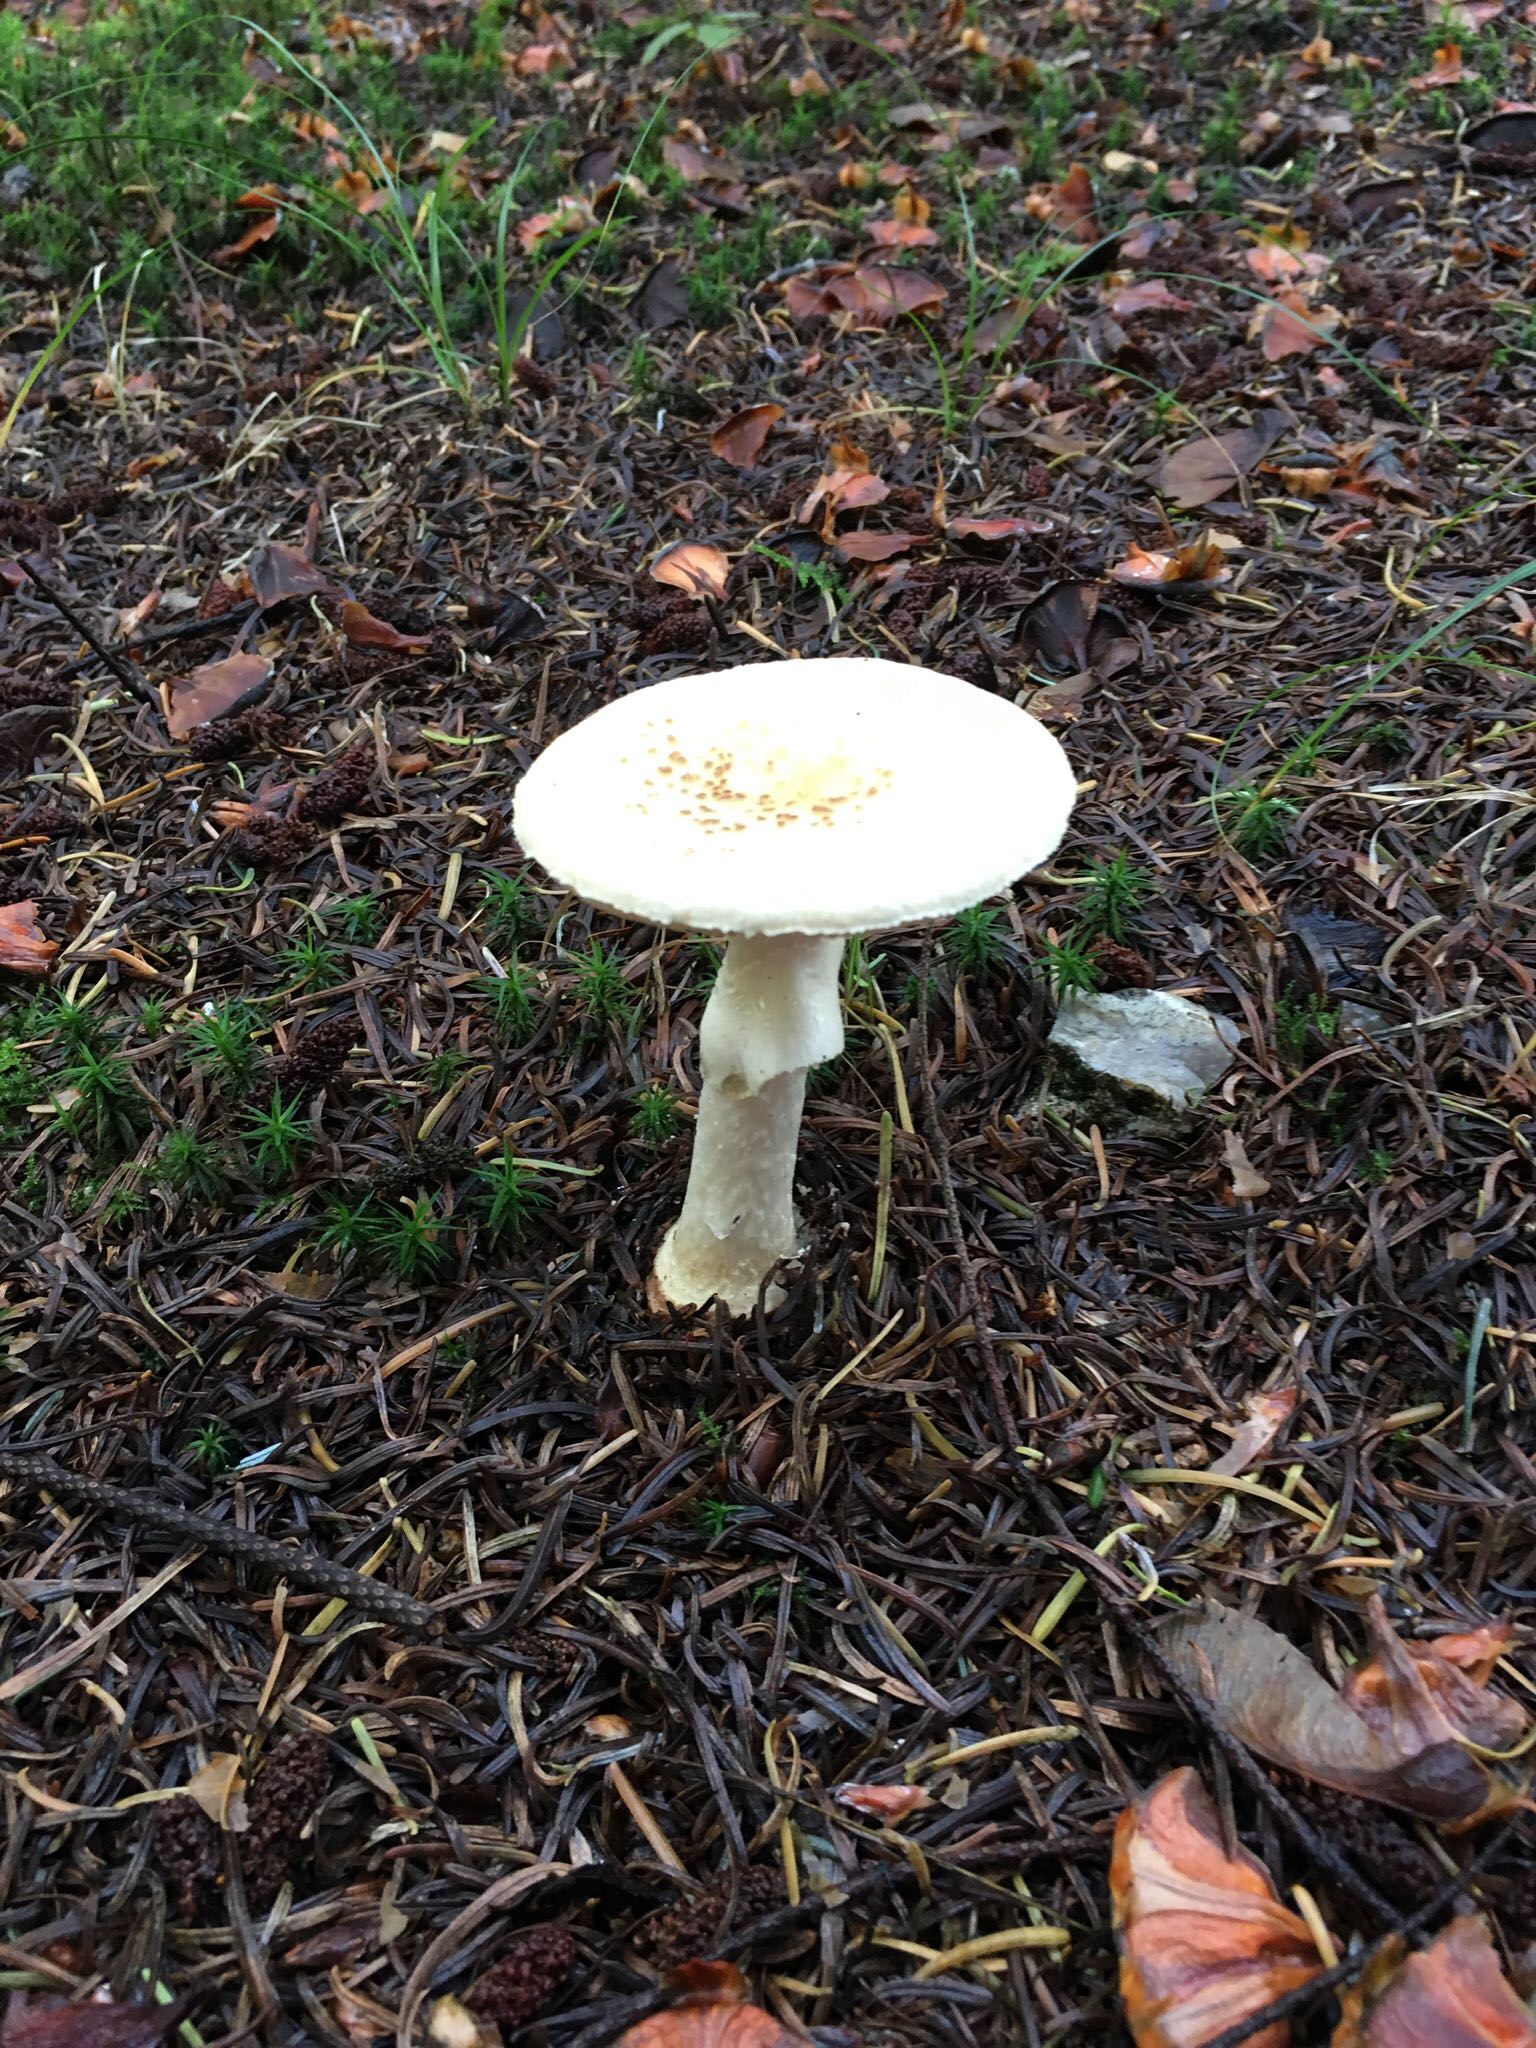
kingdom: Fungi
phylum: Basidiomycota
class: Agaricomycetes
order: Agaricales
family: Amanitaceae
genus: Amanita
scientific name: Amanita citrina
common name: kugleknoldet fluesvamp
